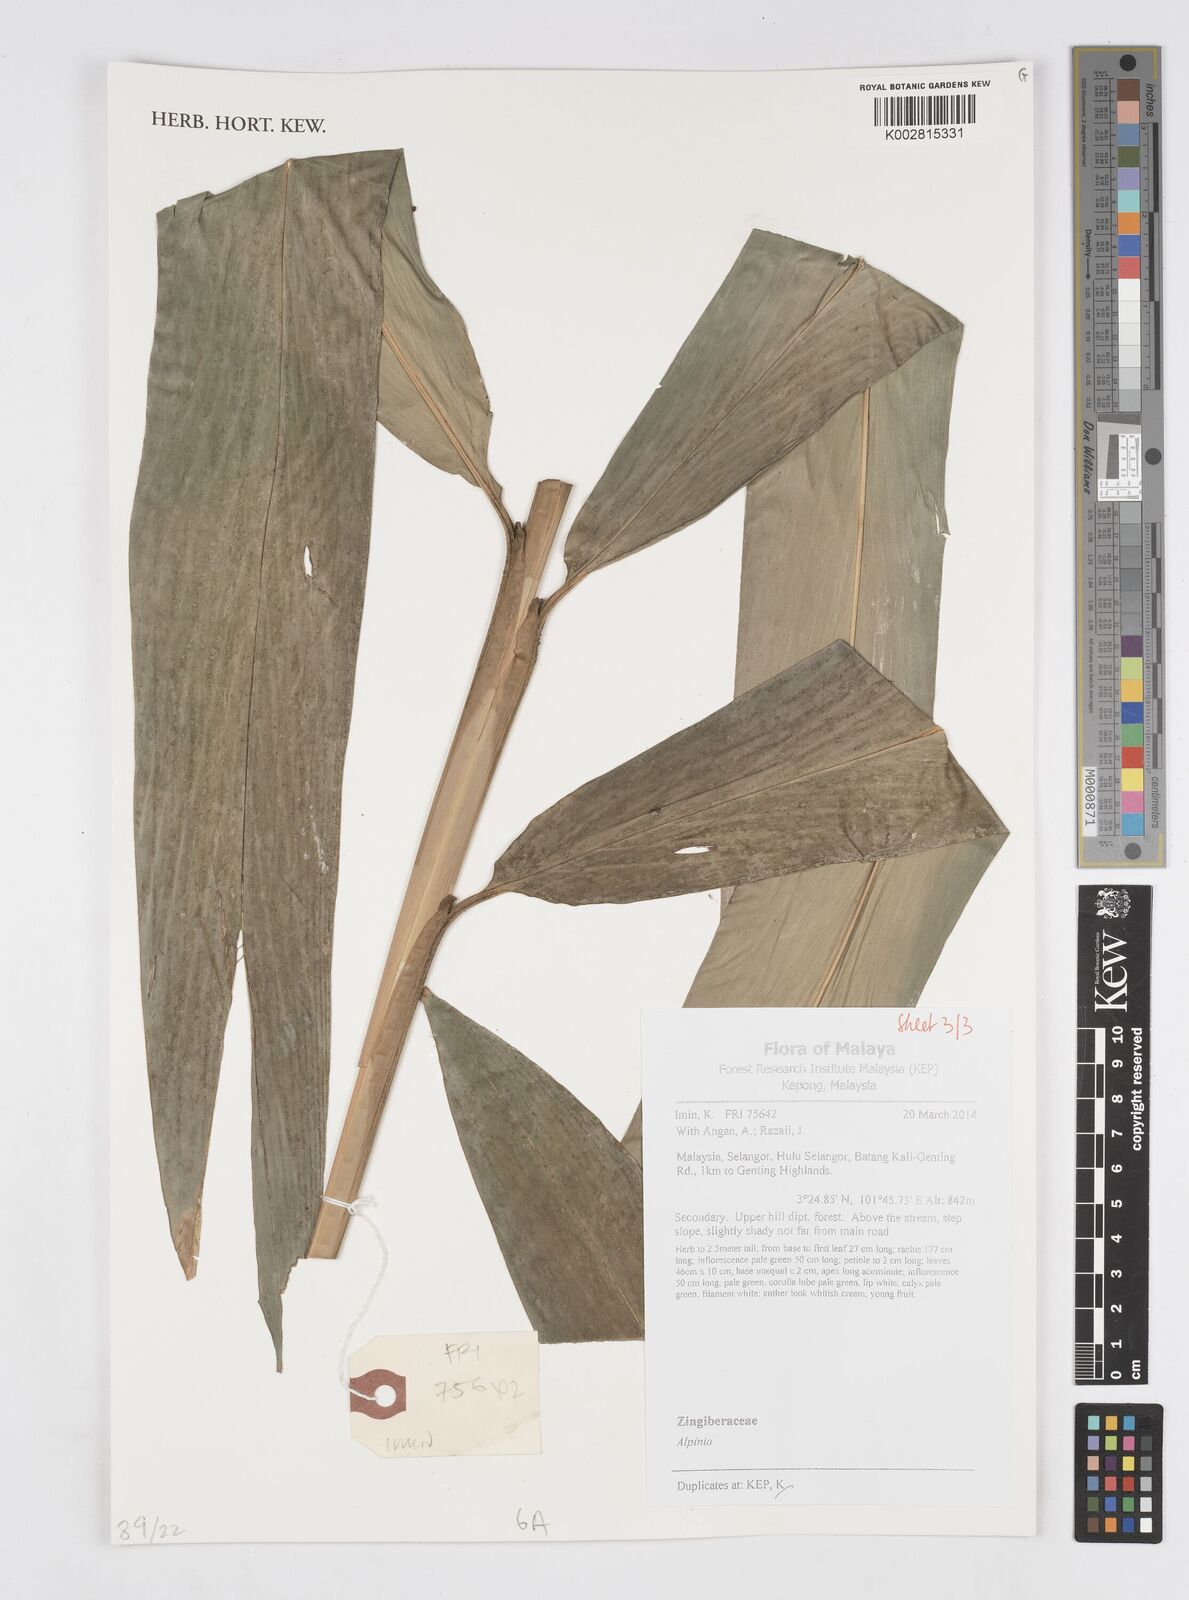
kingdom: Plantae
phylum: Tracheophyta
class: Liliopsida
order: Zingiberales
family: Zingiberaceae
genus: Alpinia
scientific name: Alpinia
